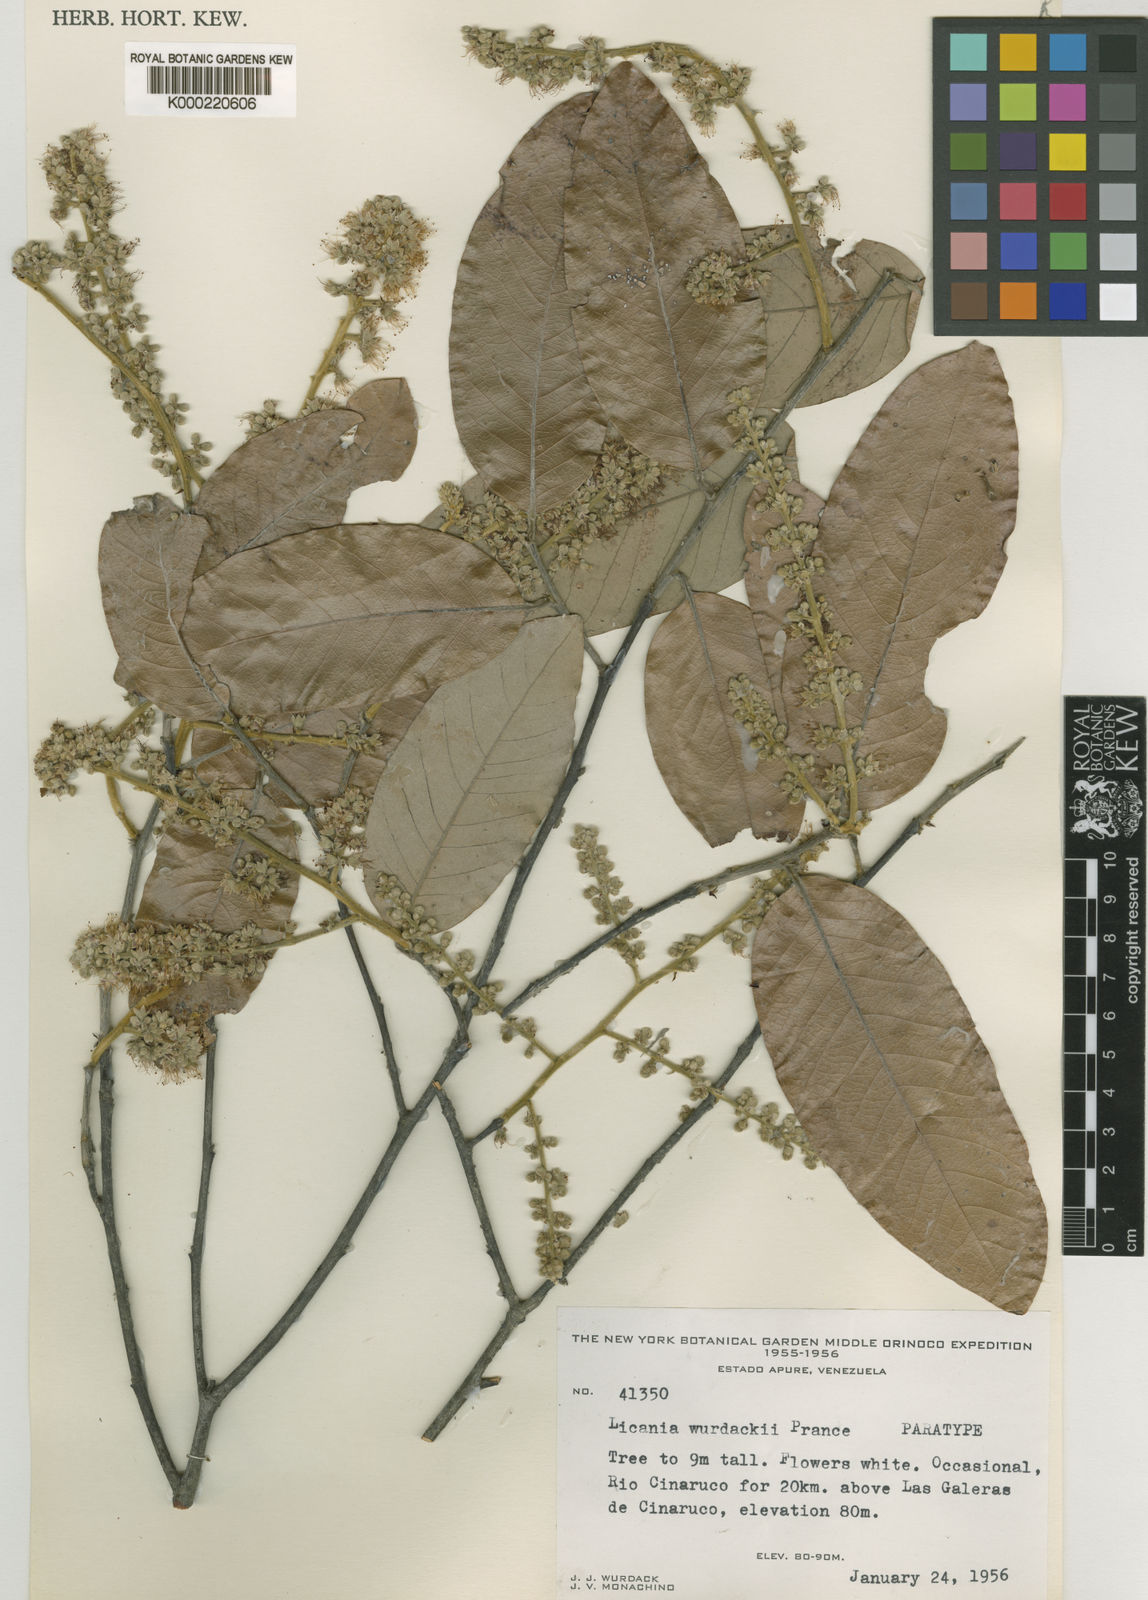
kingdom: Plantae
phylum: Tracheophyta
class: Magnoliopsida
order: Malpighiales
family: Chrysobalanaceae
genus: Leptobalanus
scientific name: Leptobalanus wurdackii
